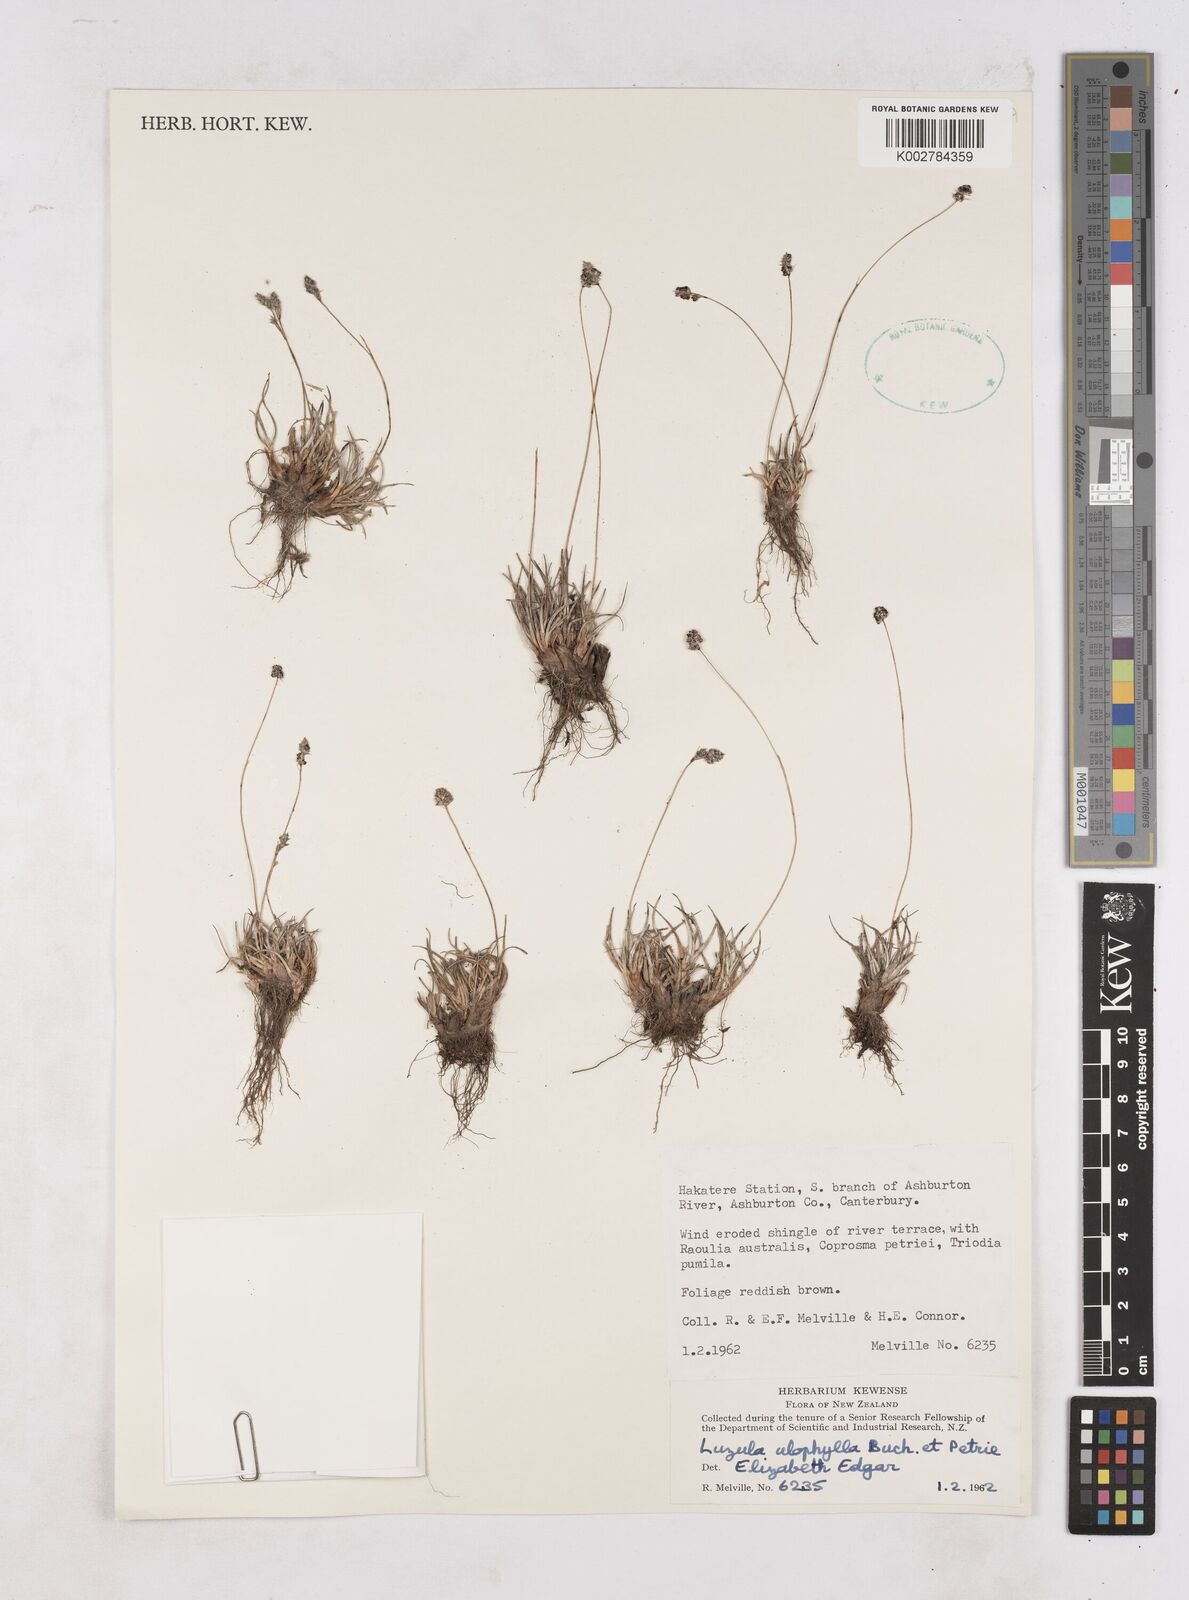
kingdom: Plantae
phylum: Tracheophyta
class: Liliopsida
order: Poales
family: Juncaceae
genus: Luzula
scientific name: Luzula ulophylla
